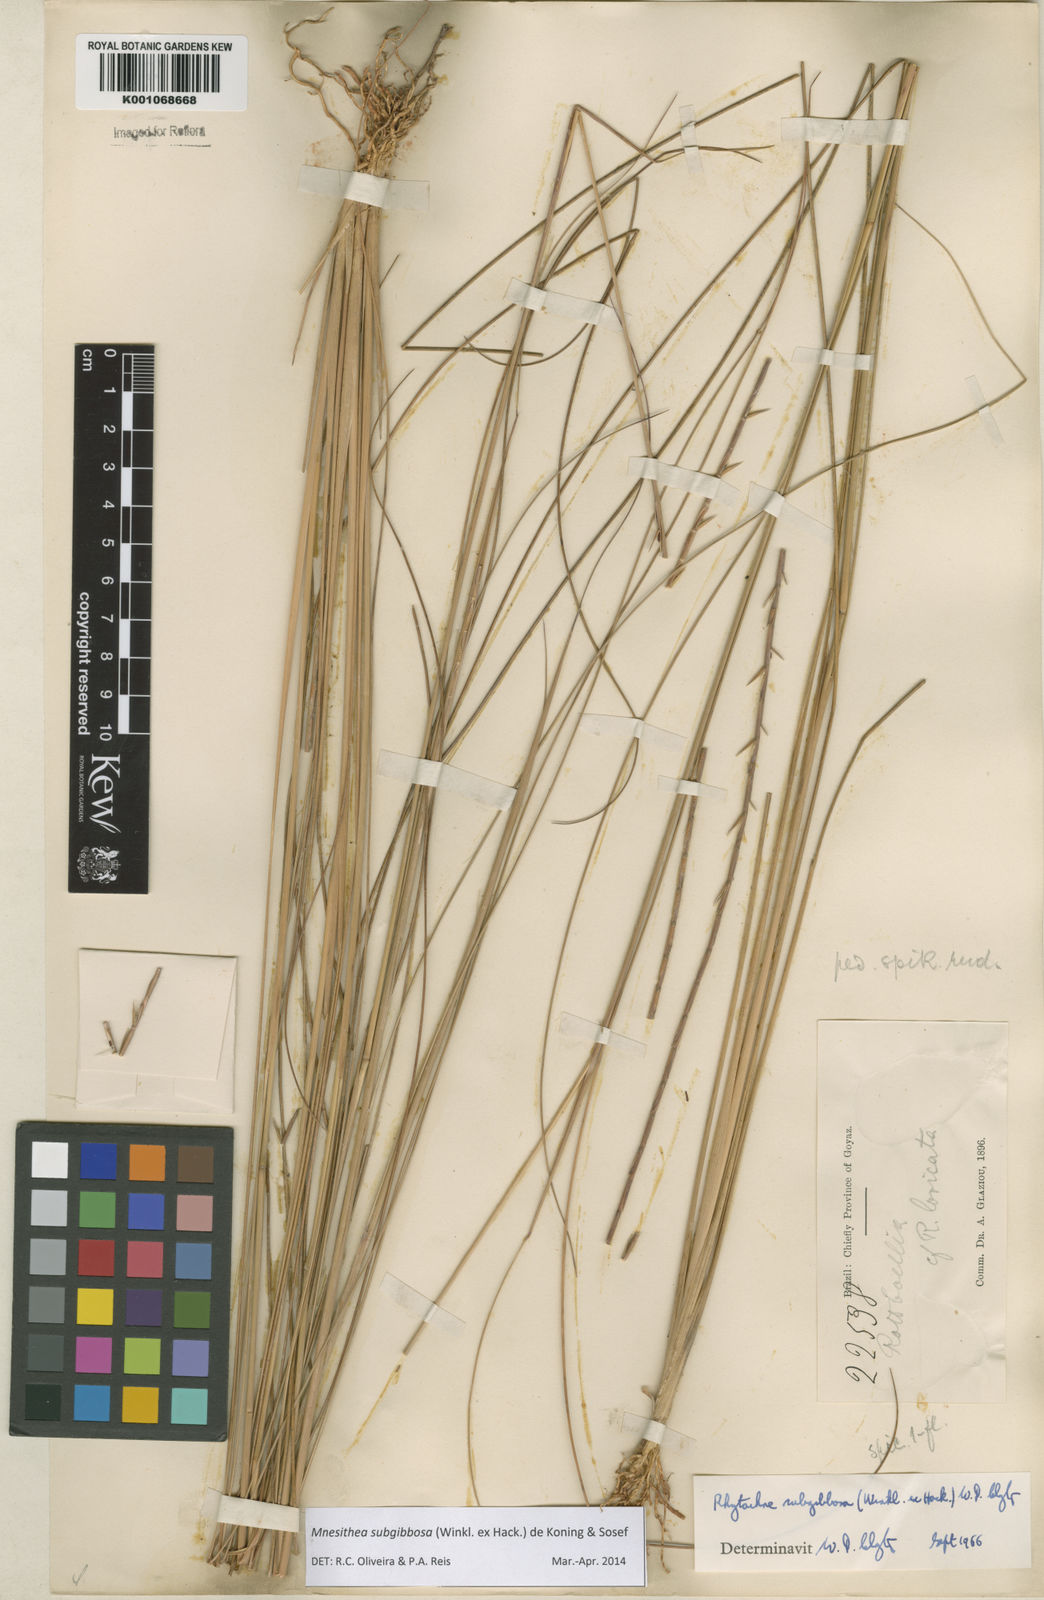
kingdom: Plantae
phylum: Tracheophyta
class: Liliopsida
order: Poales
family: Poaceae
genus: Rhytachne
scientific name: Rhytachne subgibbosa
